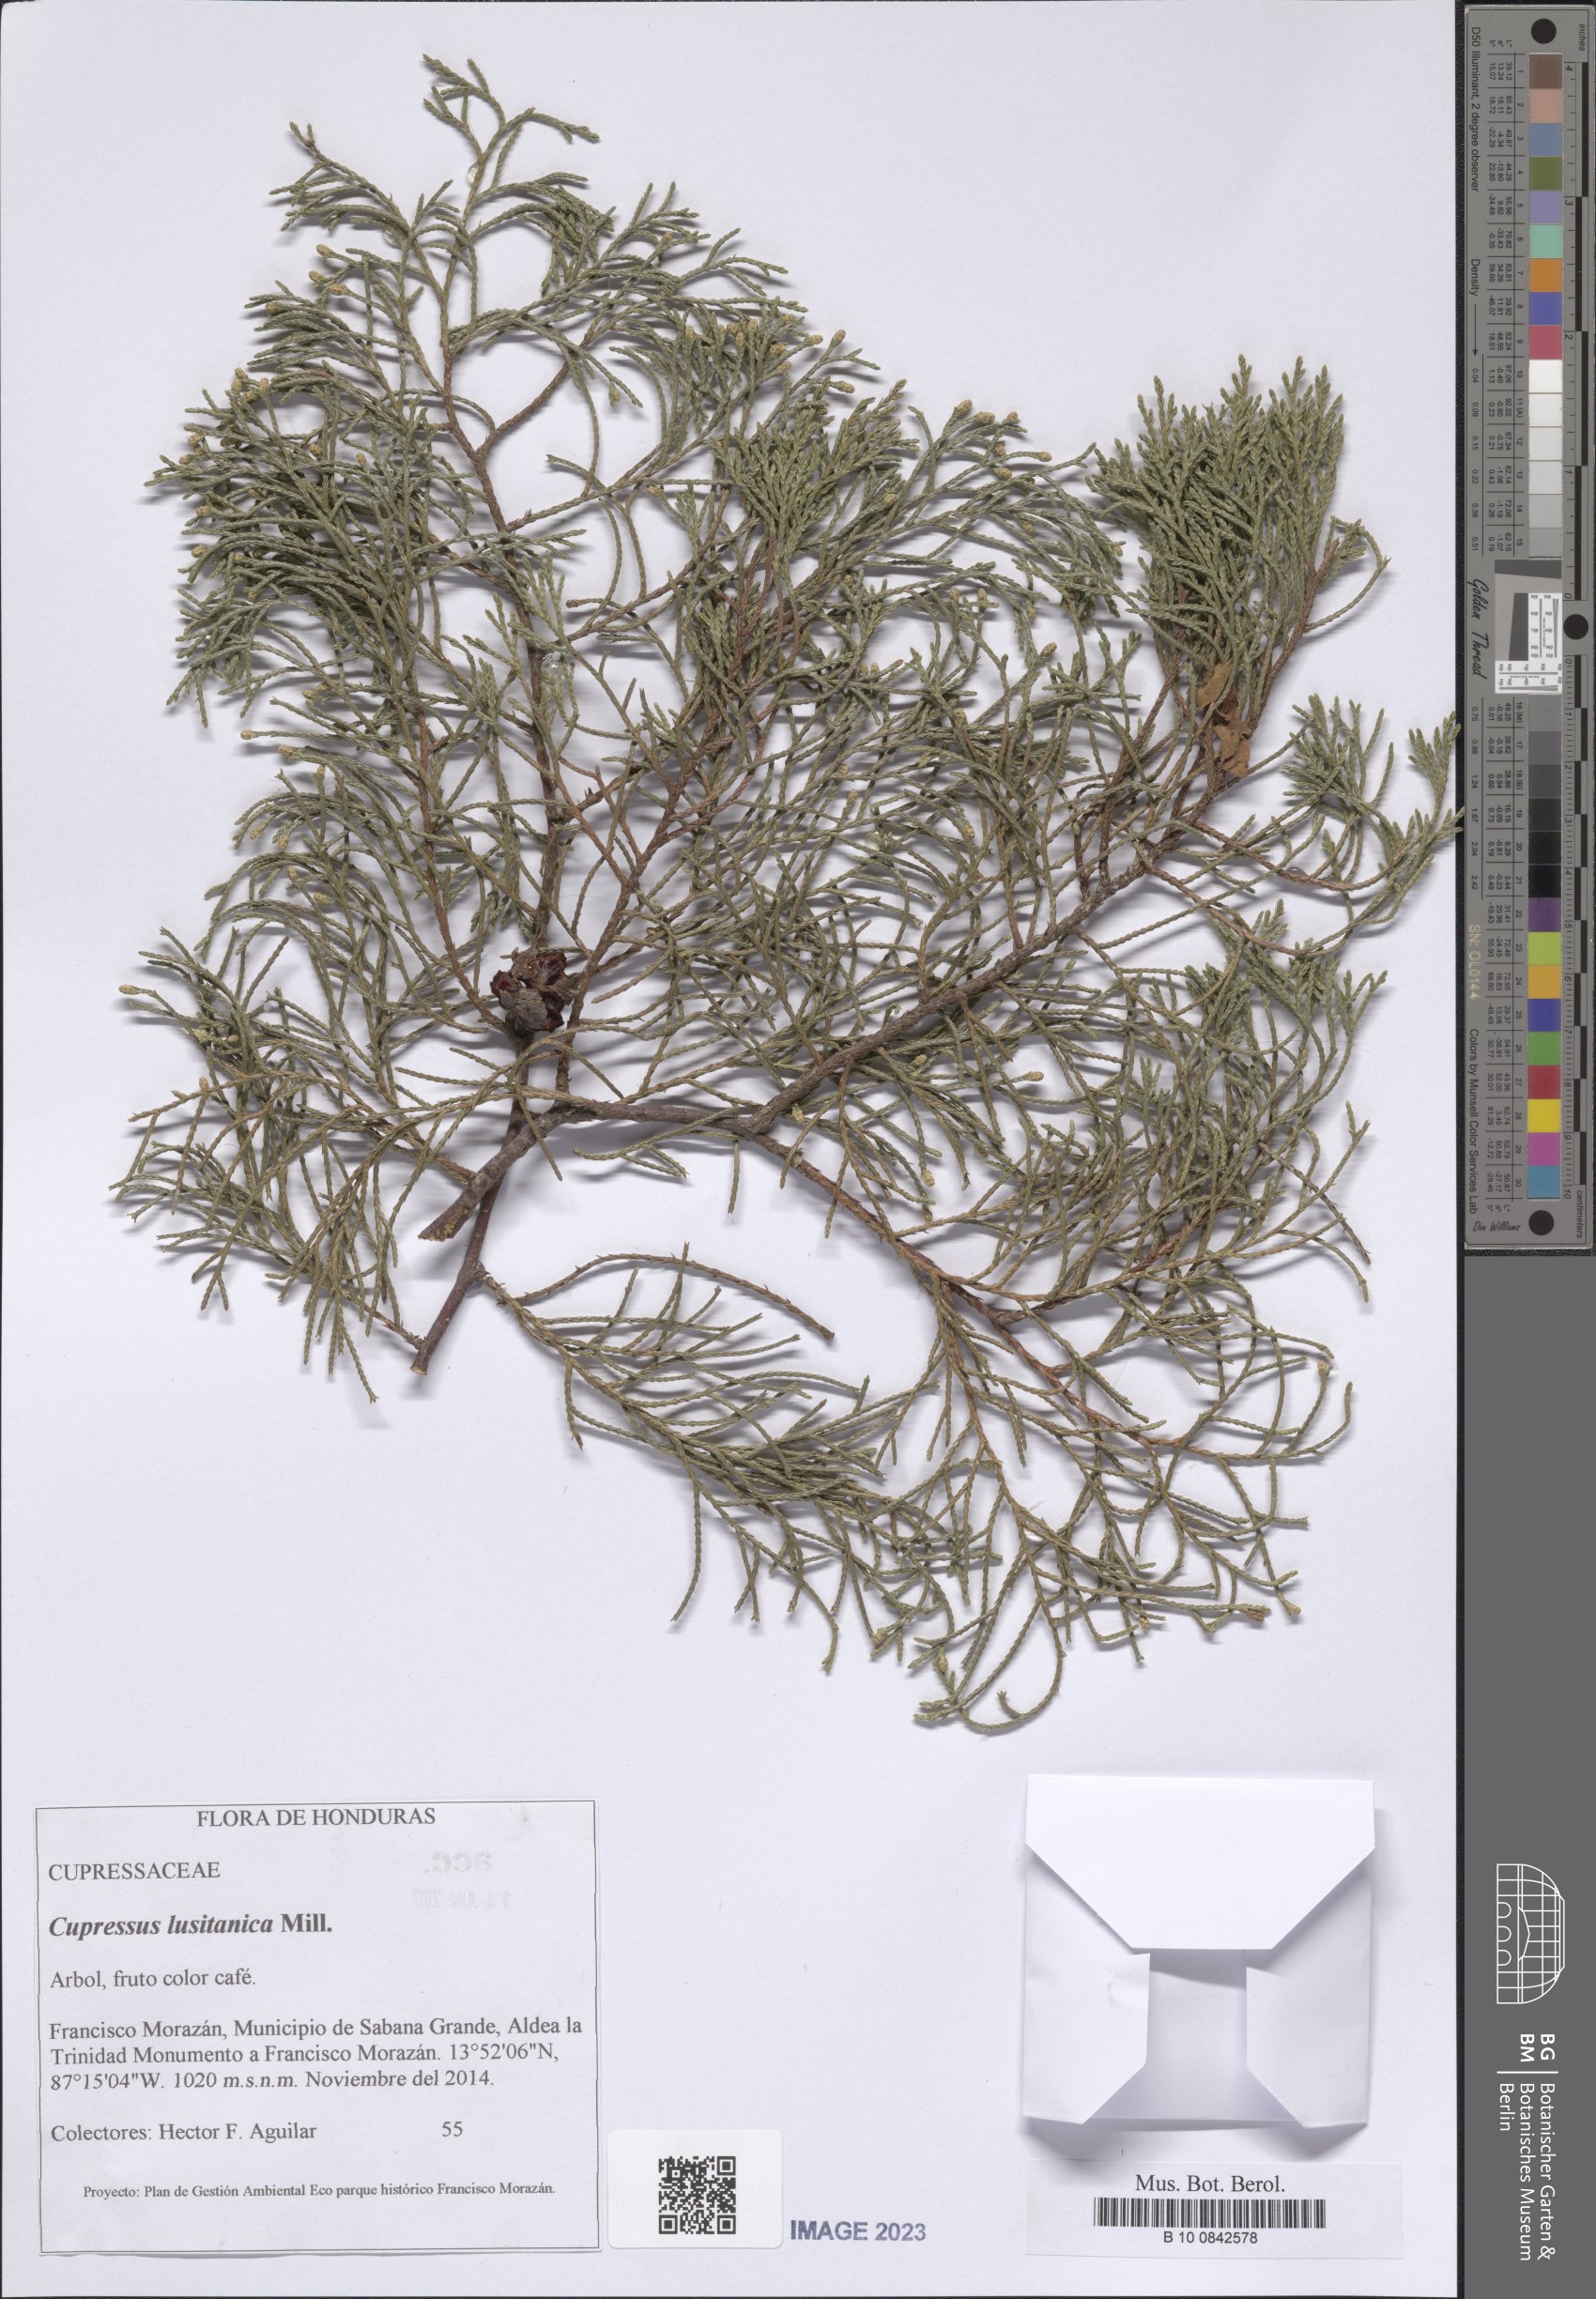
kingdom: Plantae
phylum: Tracheophyta
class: Pinopsida
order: Pinales
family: Cupressaceae
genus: Cupressus
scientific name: Cupressus lusitanica
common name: Mexican cypress
